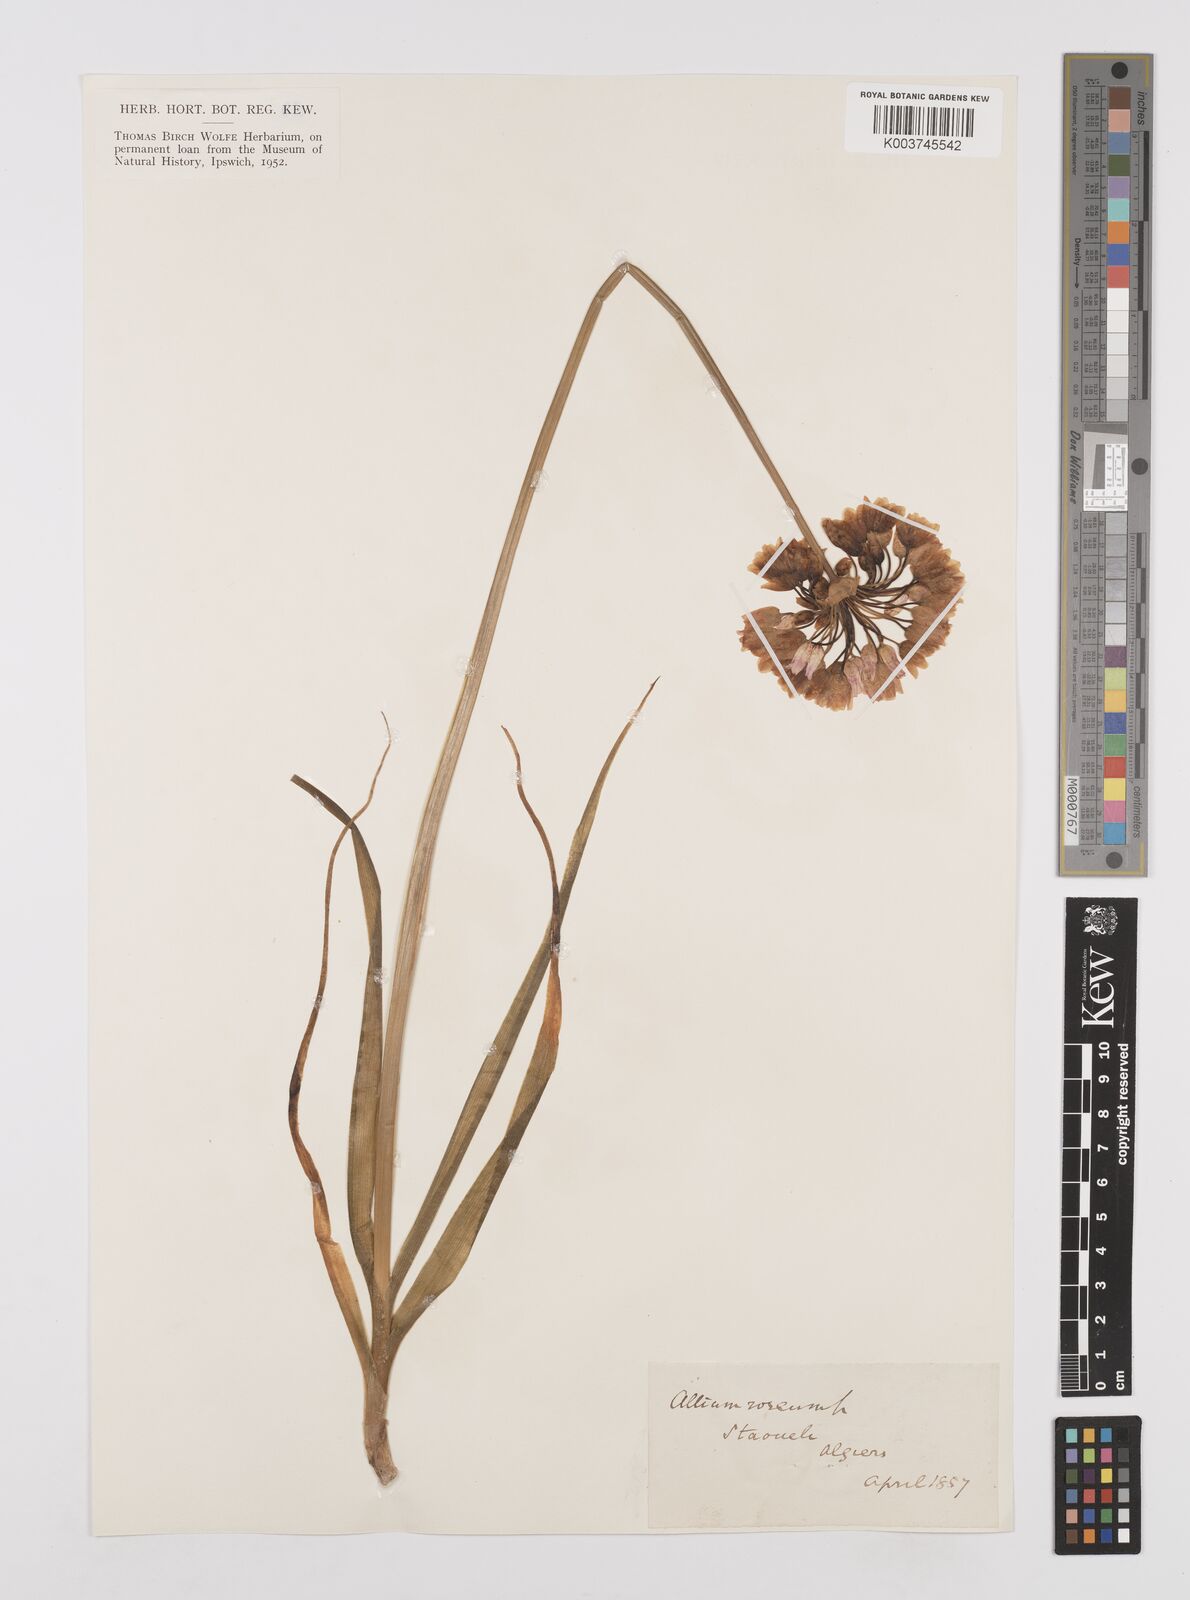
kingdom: Plantae
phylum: Tracheophyta
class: Liliopsida
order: Asparagales
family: Amaryllidaceae
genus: Allium
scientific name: Allium roseum
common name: Rosy garlic
